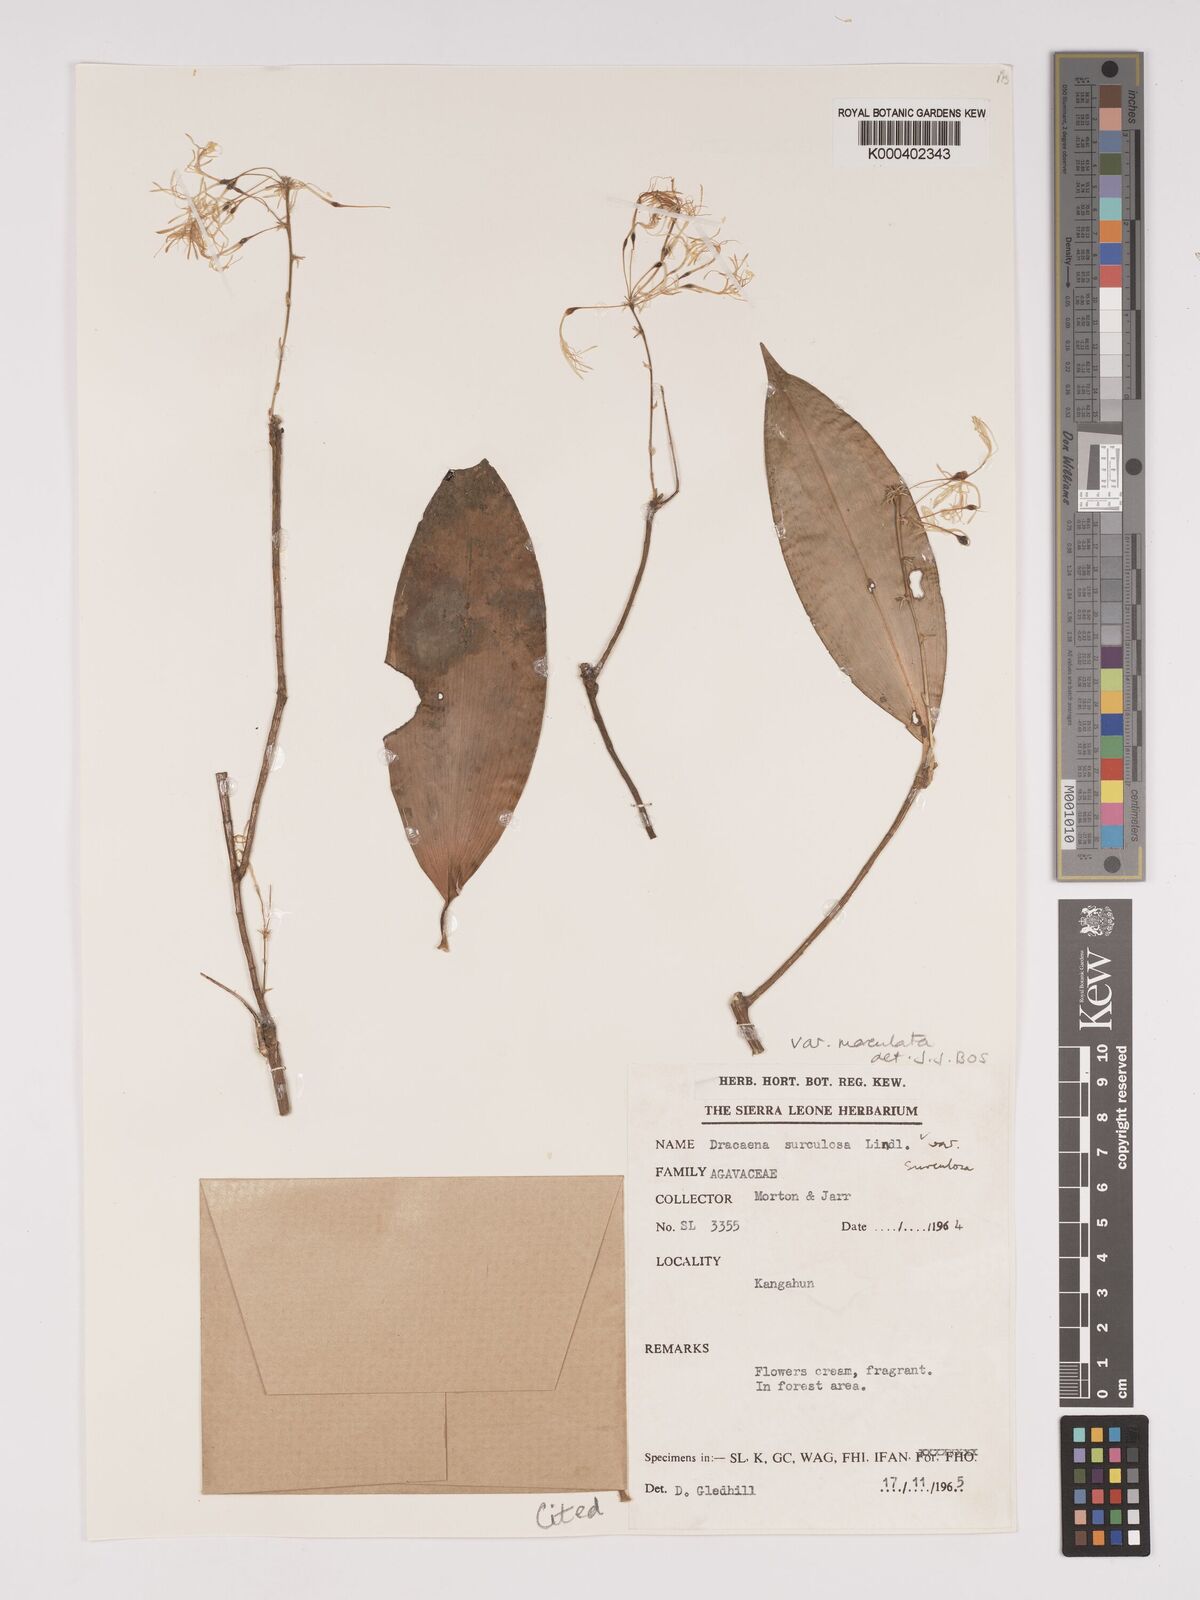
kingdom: Plantae
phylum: Tracheophyta
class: Liliopsida
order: Asparagales
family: Asparagaceae
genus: Dracaena
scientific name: Dracaena surculosa
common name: Spotted dracaena
